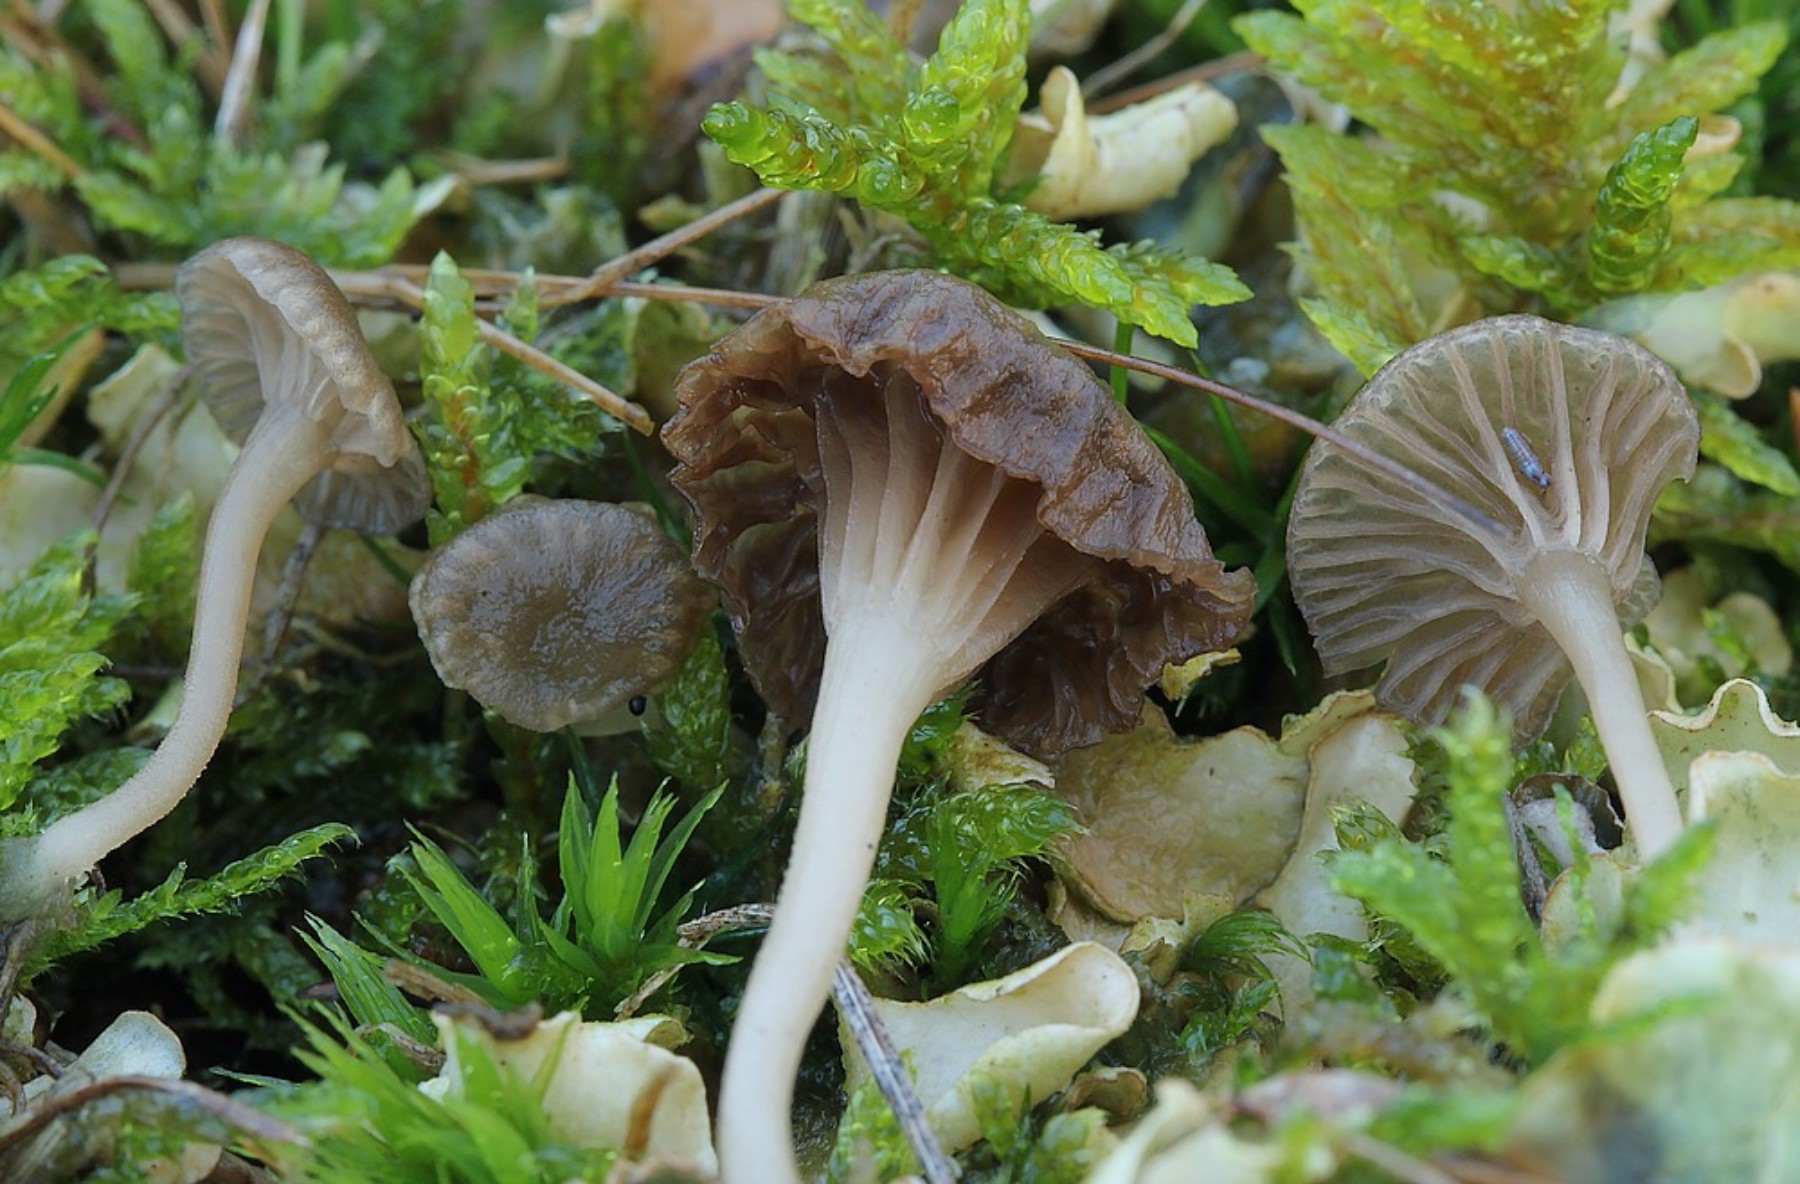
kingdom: Fungi
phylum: Basidiomycota
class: Agaricomycetes
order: Agaricales
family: Hygrophoraceae
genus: Arrhenia
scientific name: Arrhenia peltigerina
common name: skjoldlav-fontænehat
